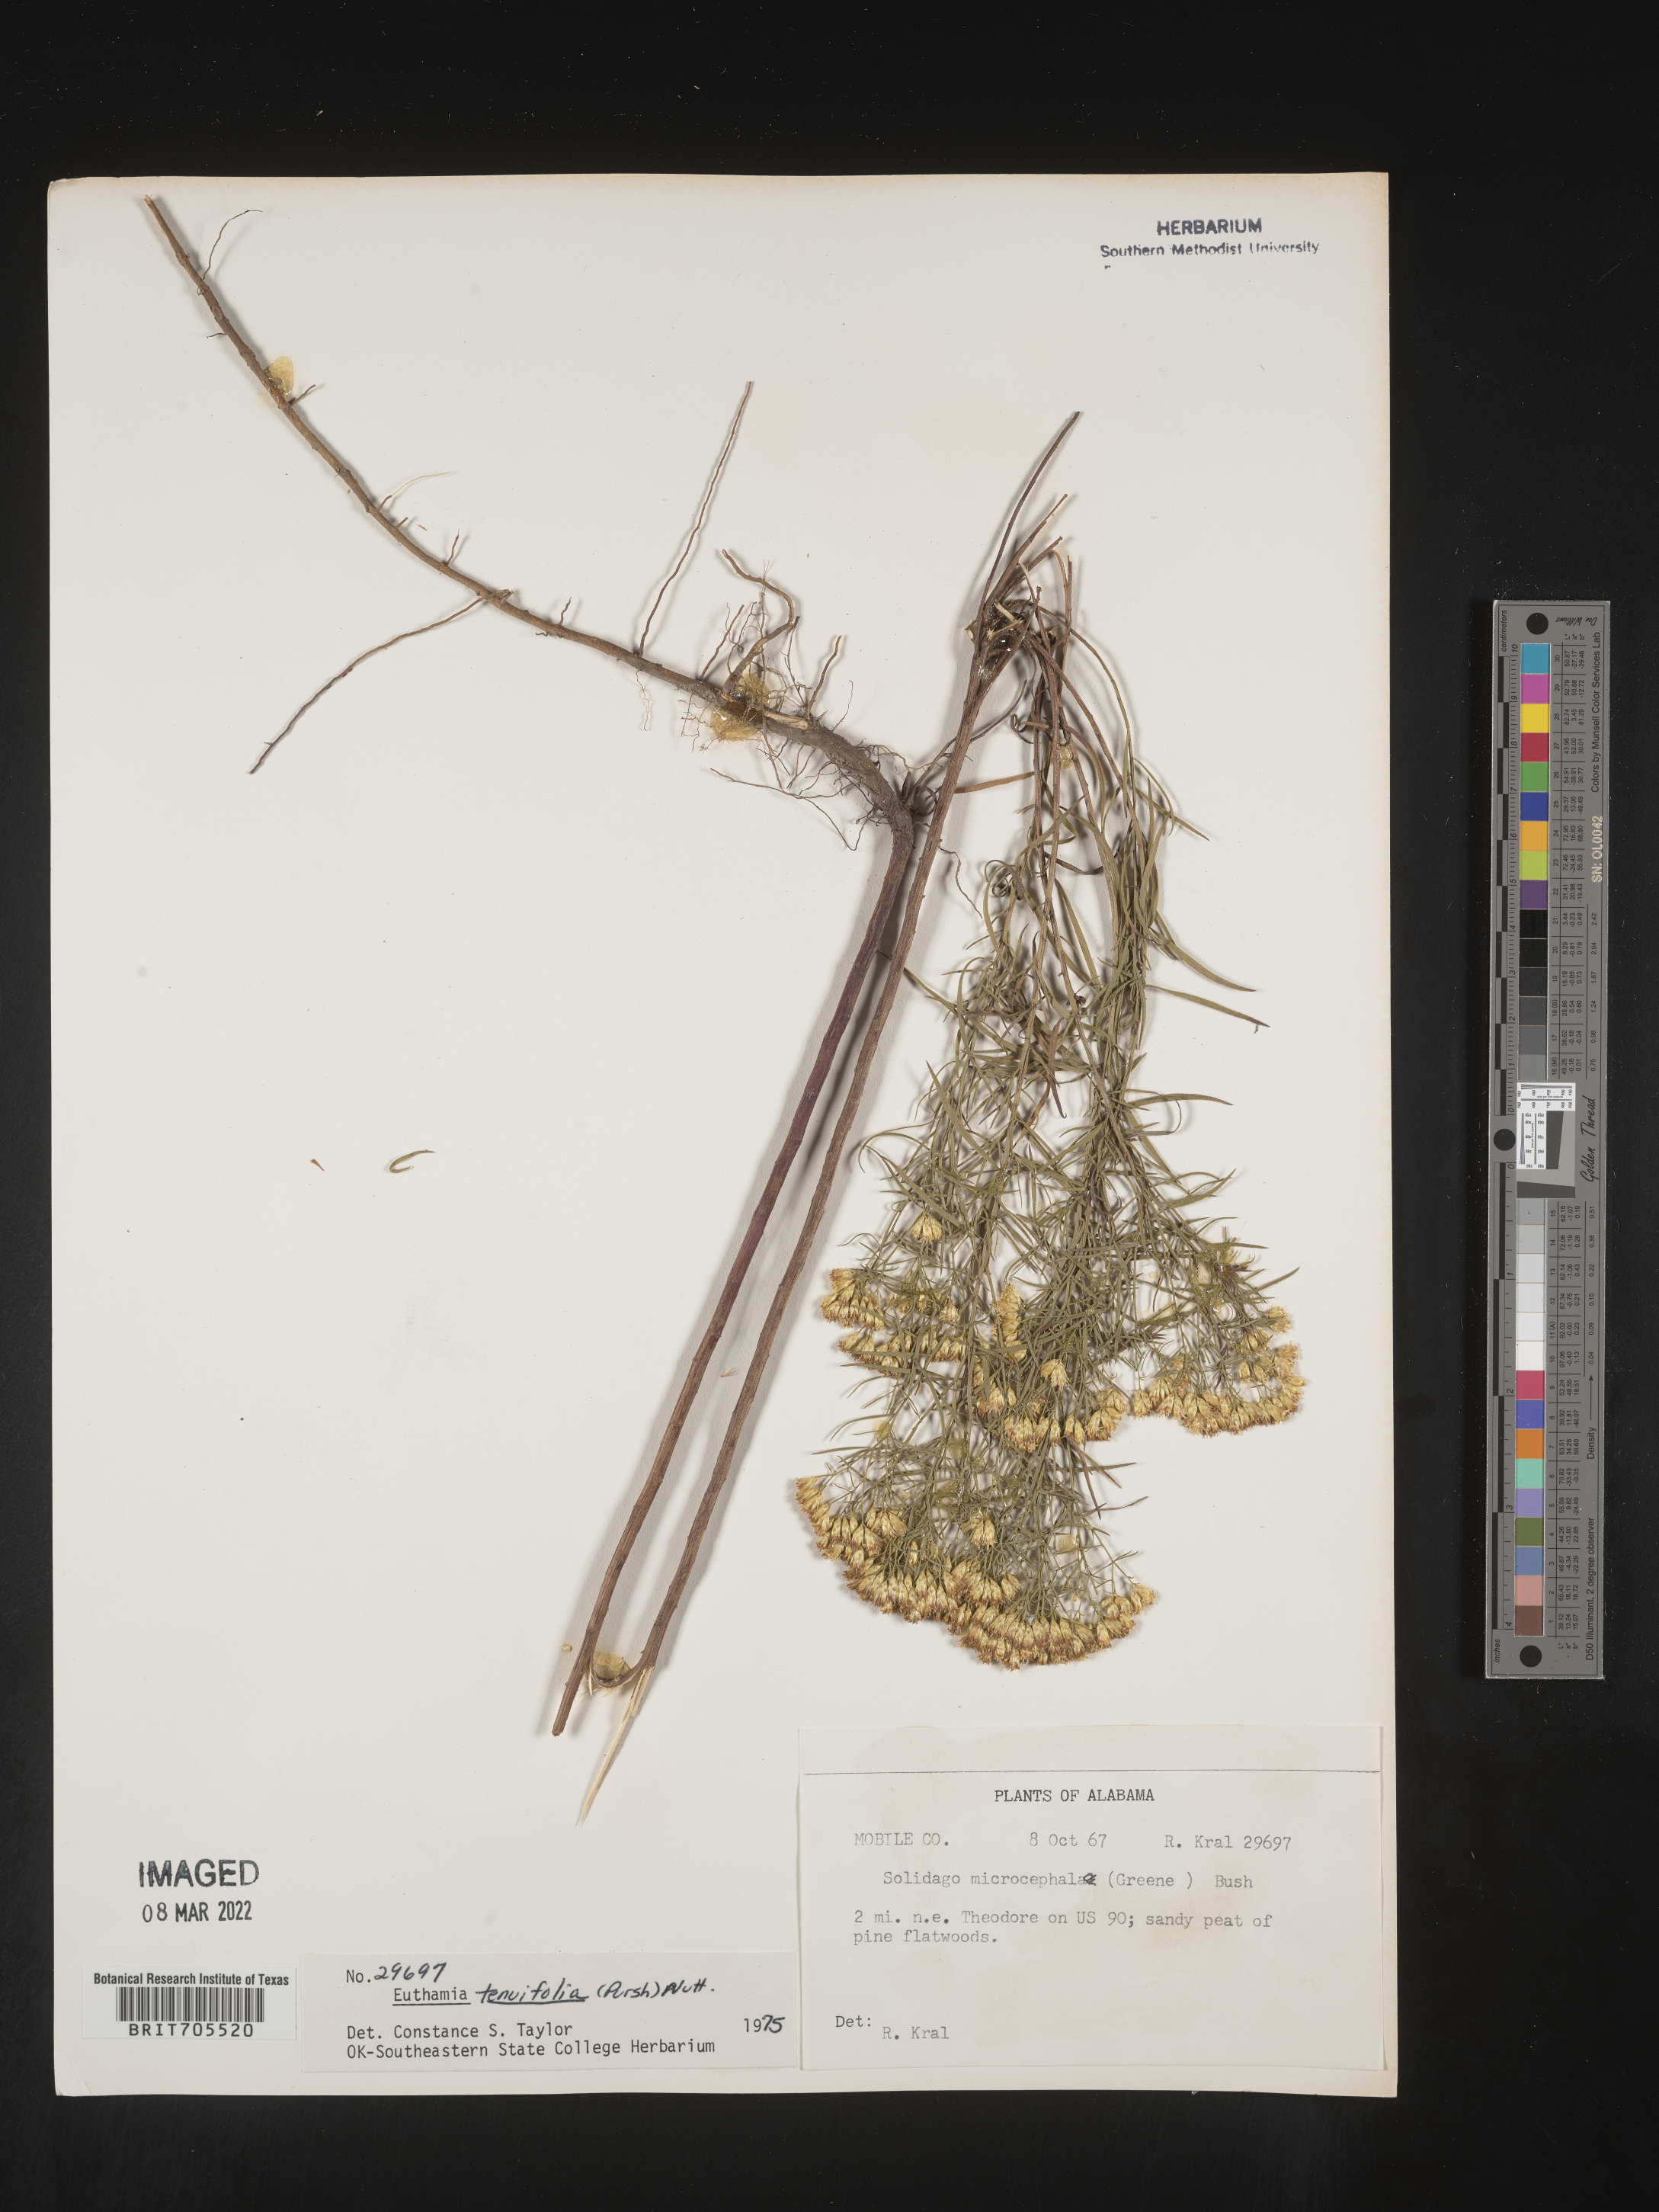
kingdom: Plantae
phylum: Tracheophyta
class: Magnoliopsida
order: Asterales
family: Asteraceae
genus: Euthamia
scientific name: Euthamia caroliniana
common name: Coastal plain goldentop
